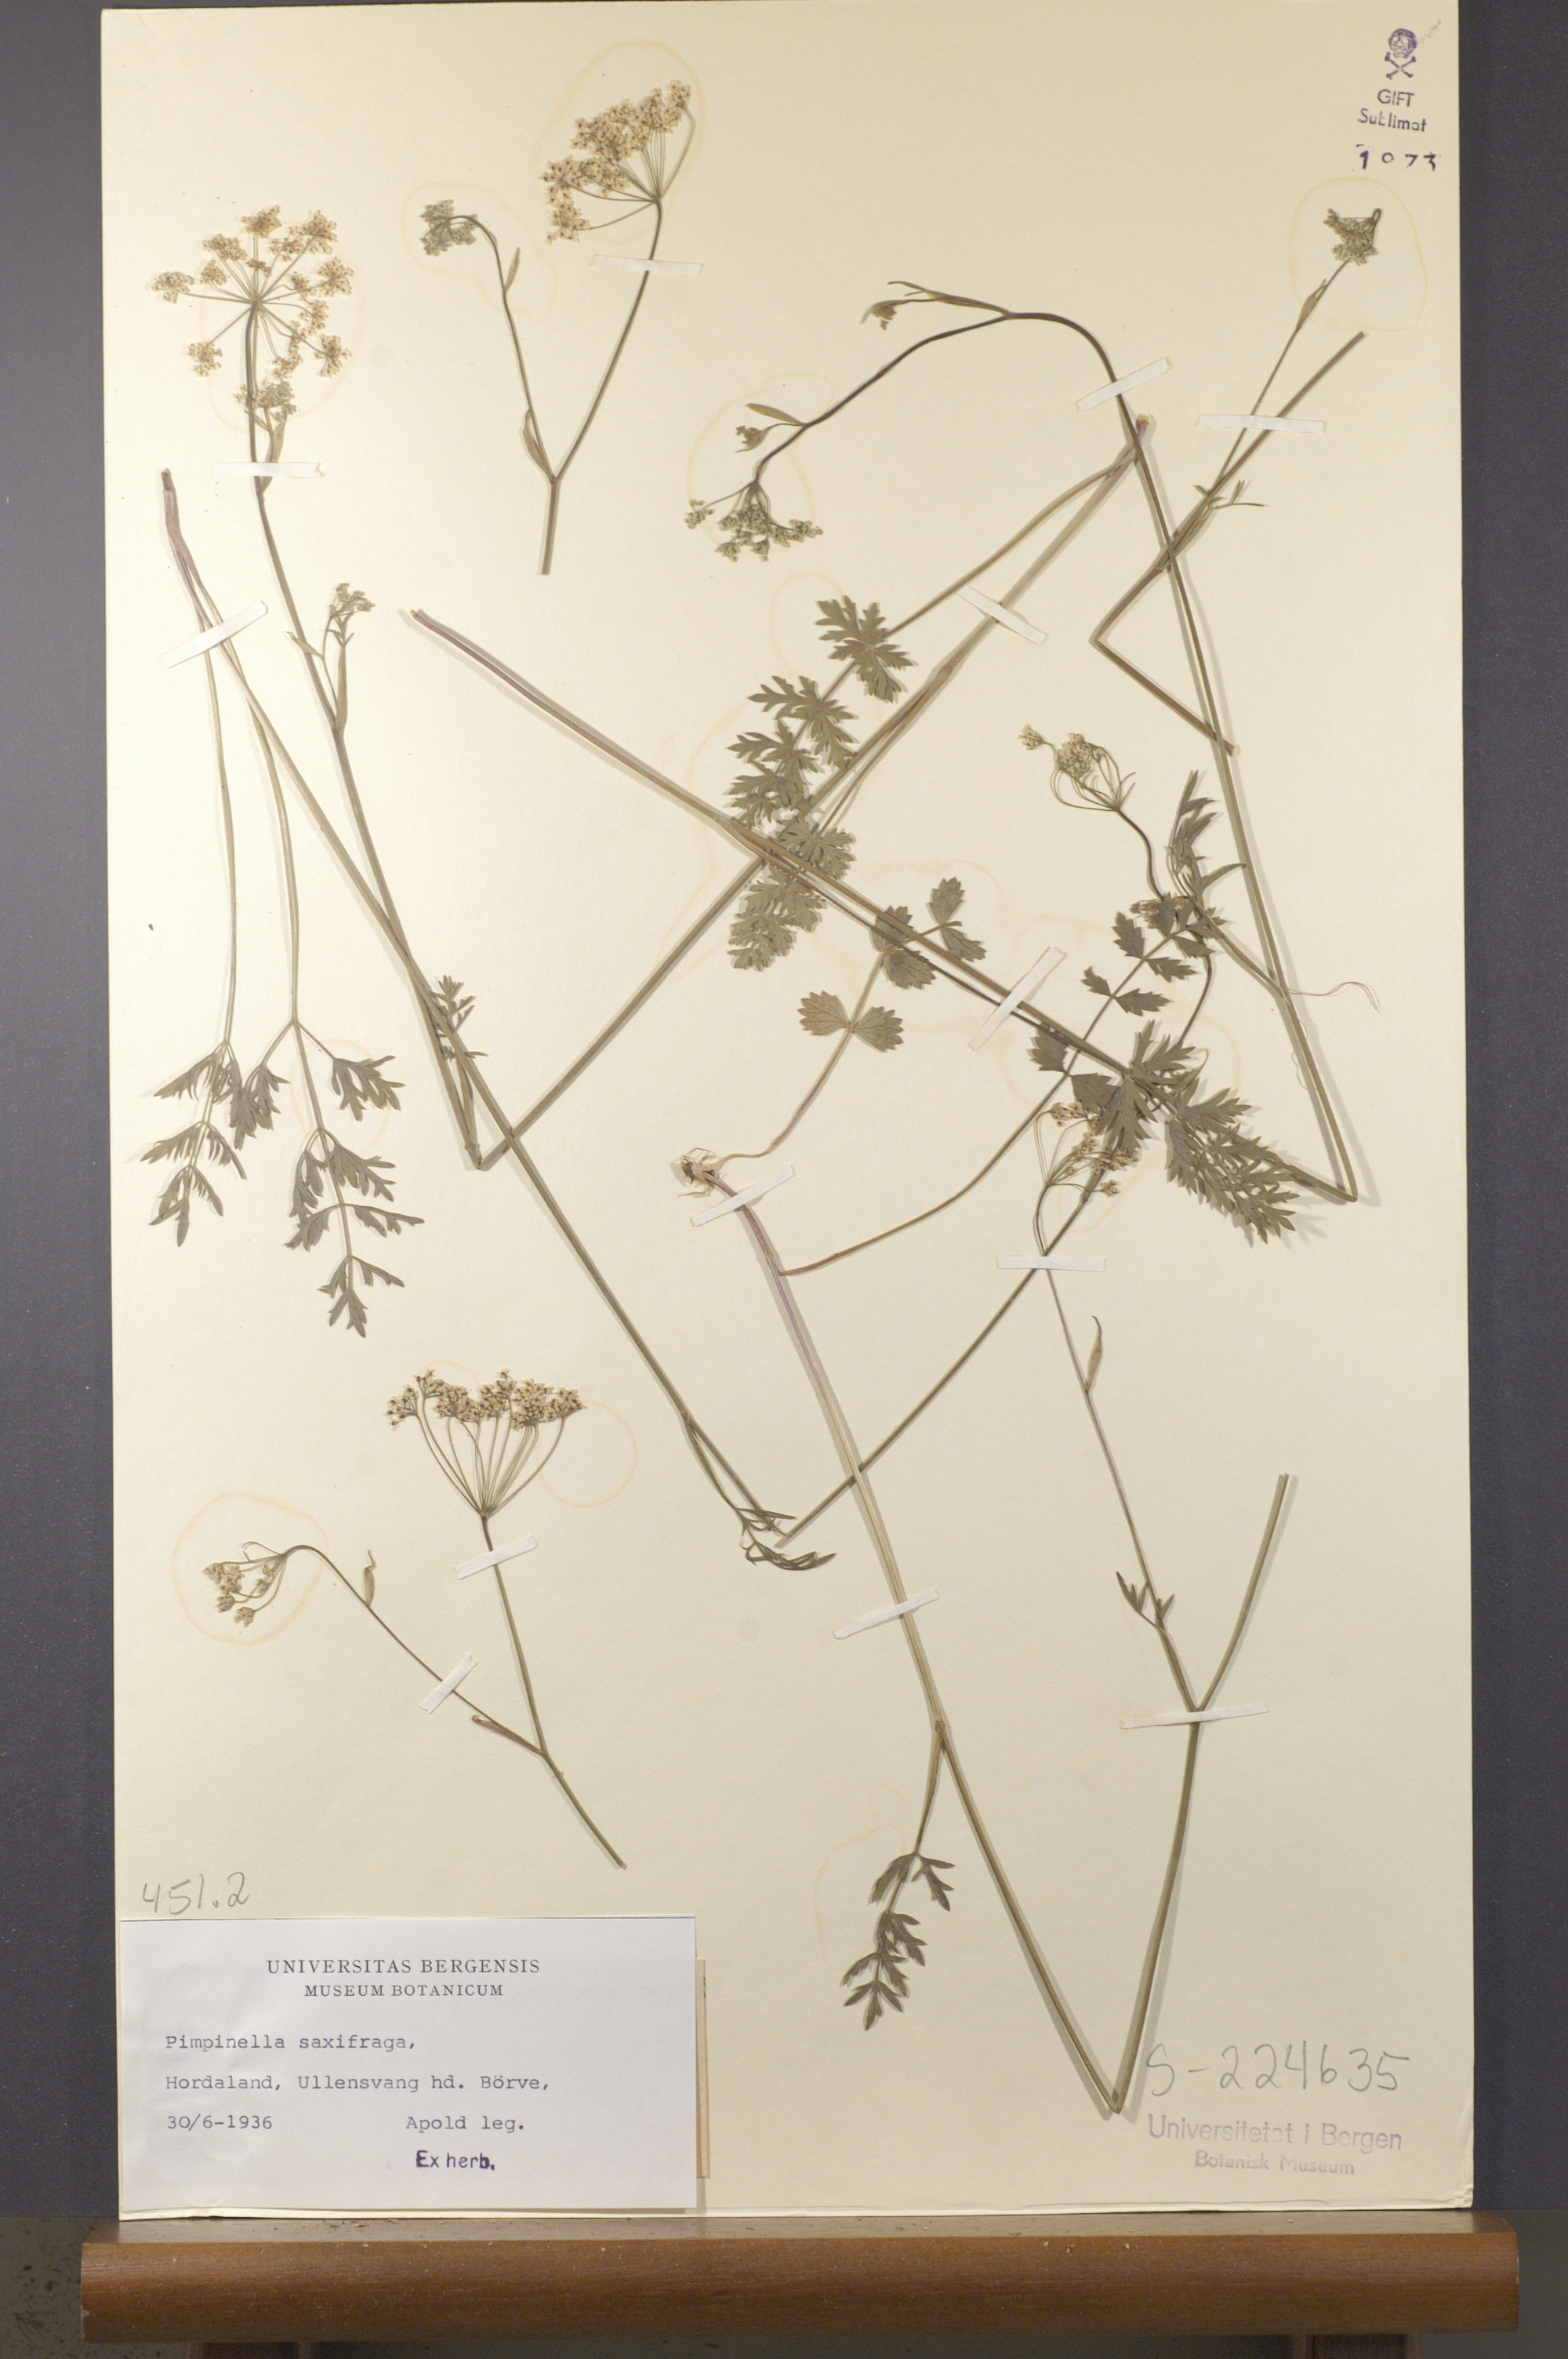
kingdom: Plantae
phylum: Tracheophyta
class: Magnoliopsida
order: Apiales
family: Apiaceae
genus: Pimpinella
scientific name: Pimpinella saxifraga
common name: Burnet-saxifrage
